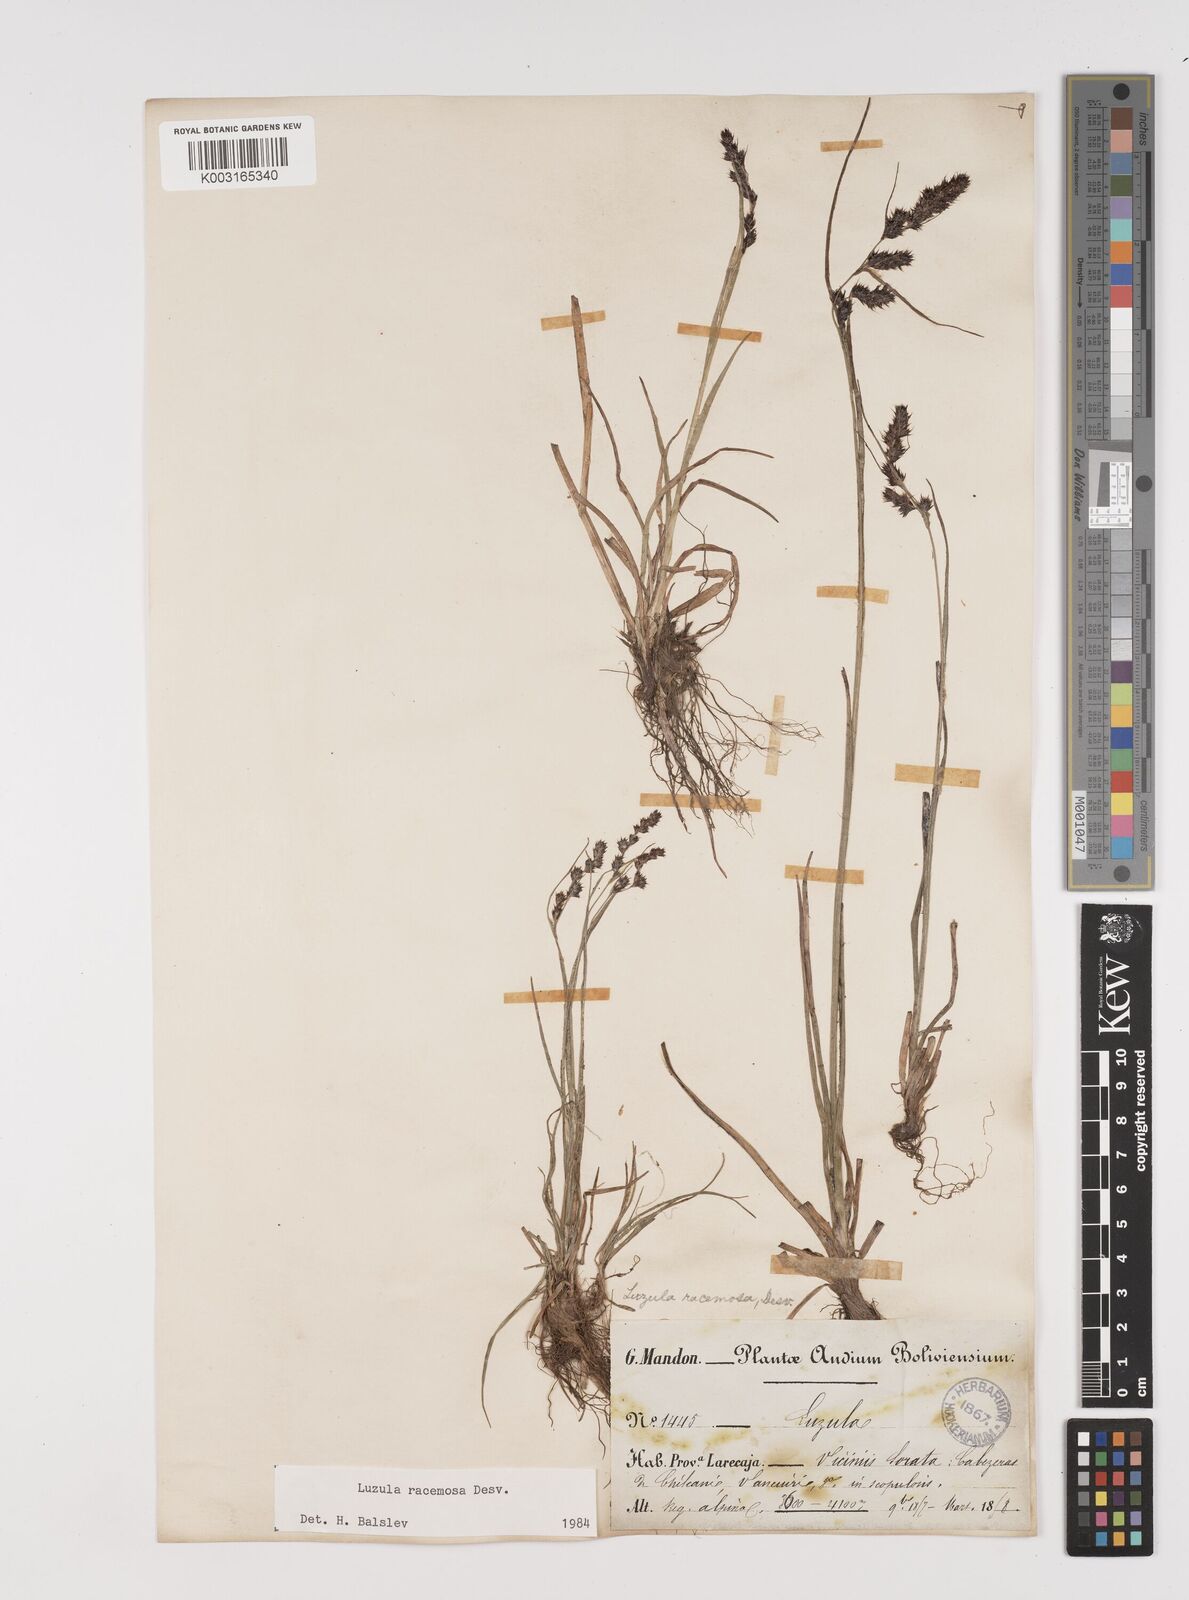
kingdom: Plantae
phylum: Tracheophyta
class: Liliopsida
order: Poales
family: Juncaceae
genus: Luzula
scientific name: Luzula racemosa
